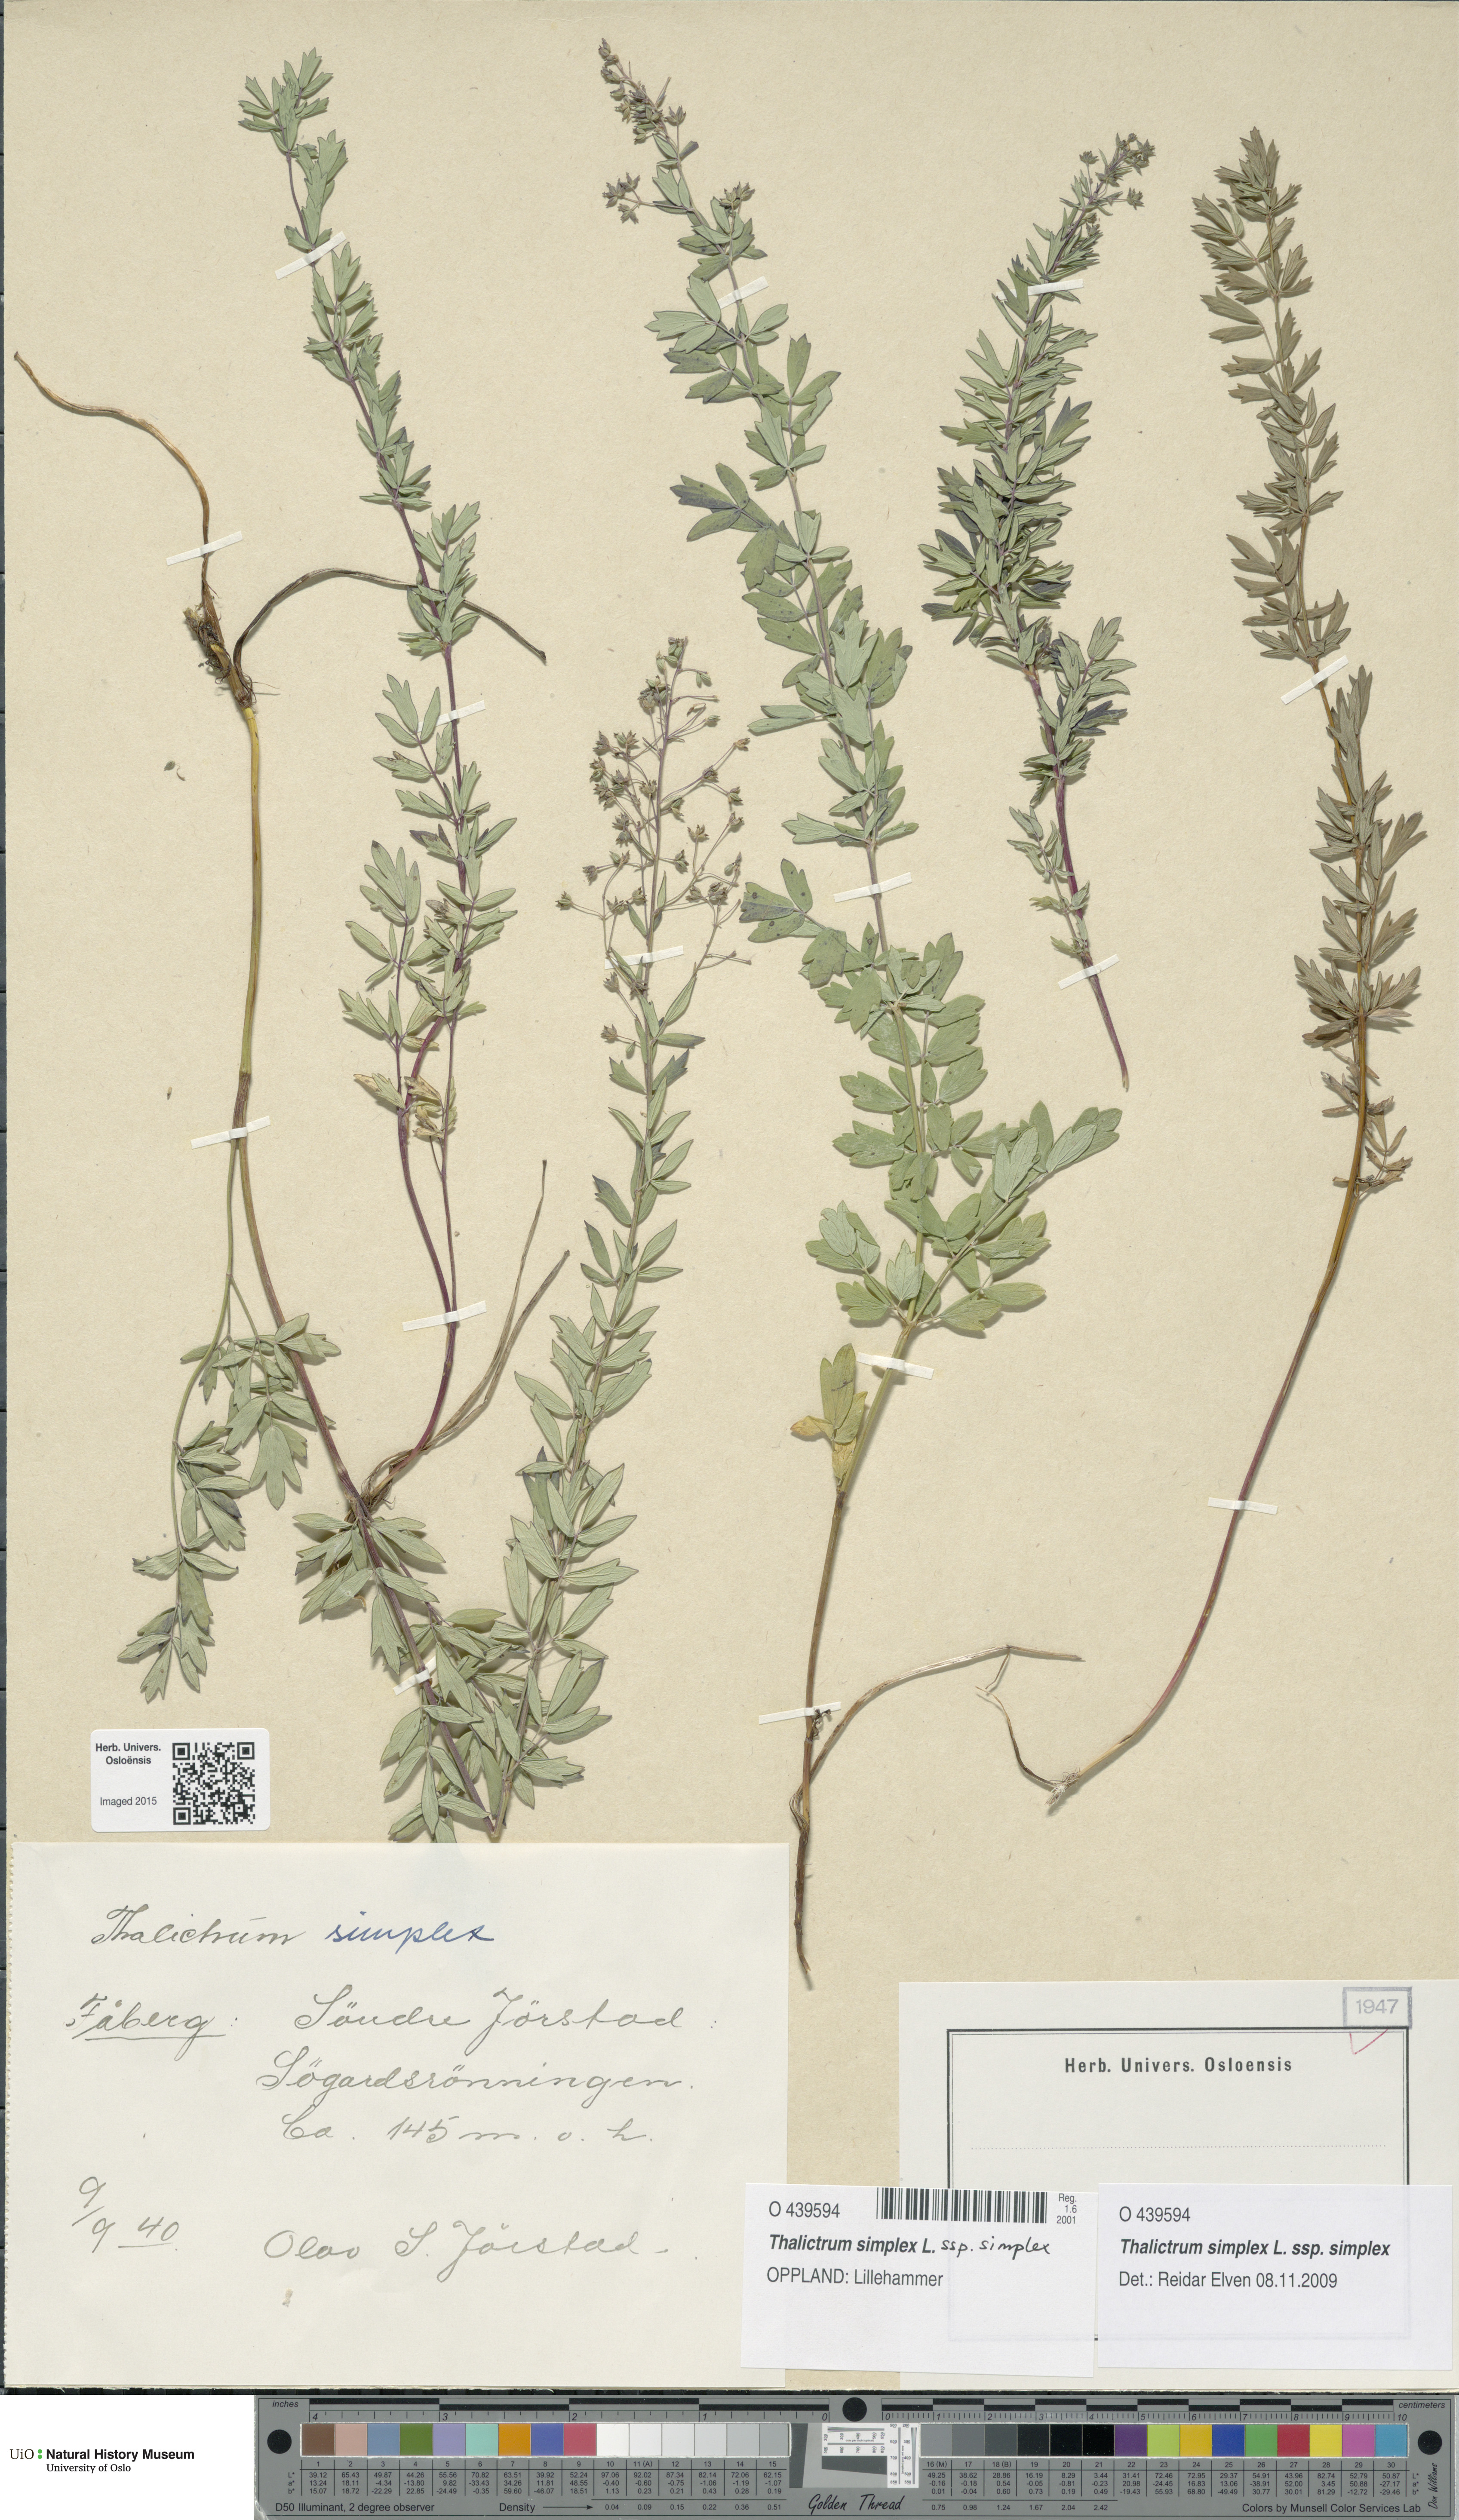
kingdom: Plantae
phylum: Tracheophyta
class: Magnoliopsida
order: Ranunculales
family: Ranunculaceae
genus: Thalictrum
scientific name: Thalictrum simplex
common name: Small meadow-rue
